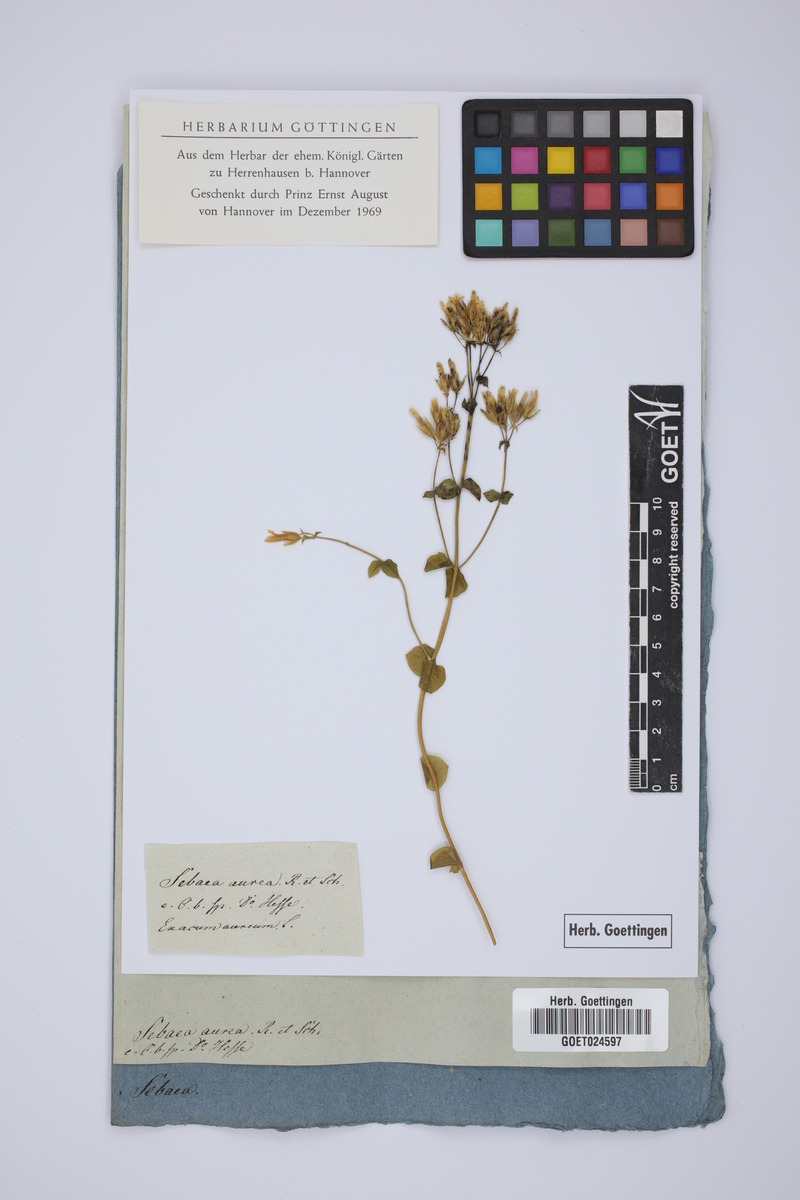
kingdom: Plantae
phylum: Tracheophyta
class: Magnoliopsida
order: Gentianales
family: Gentianaceae
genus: Sebaea
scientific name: Sebaea aurea
